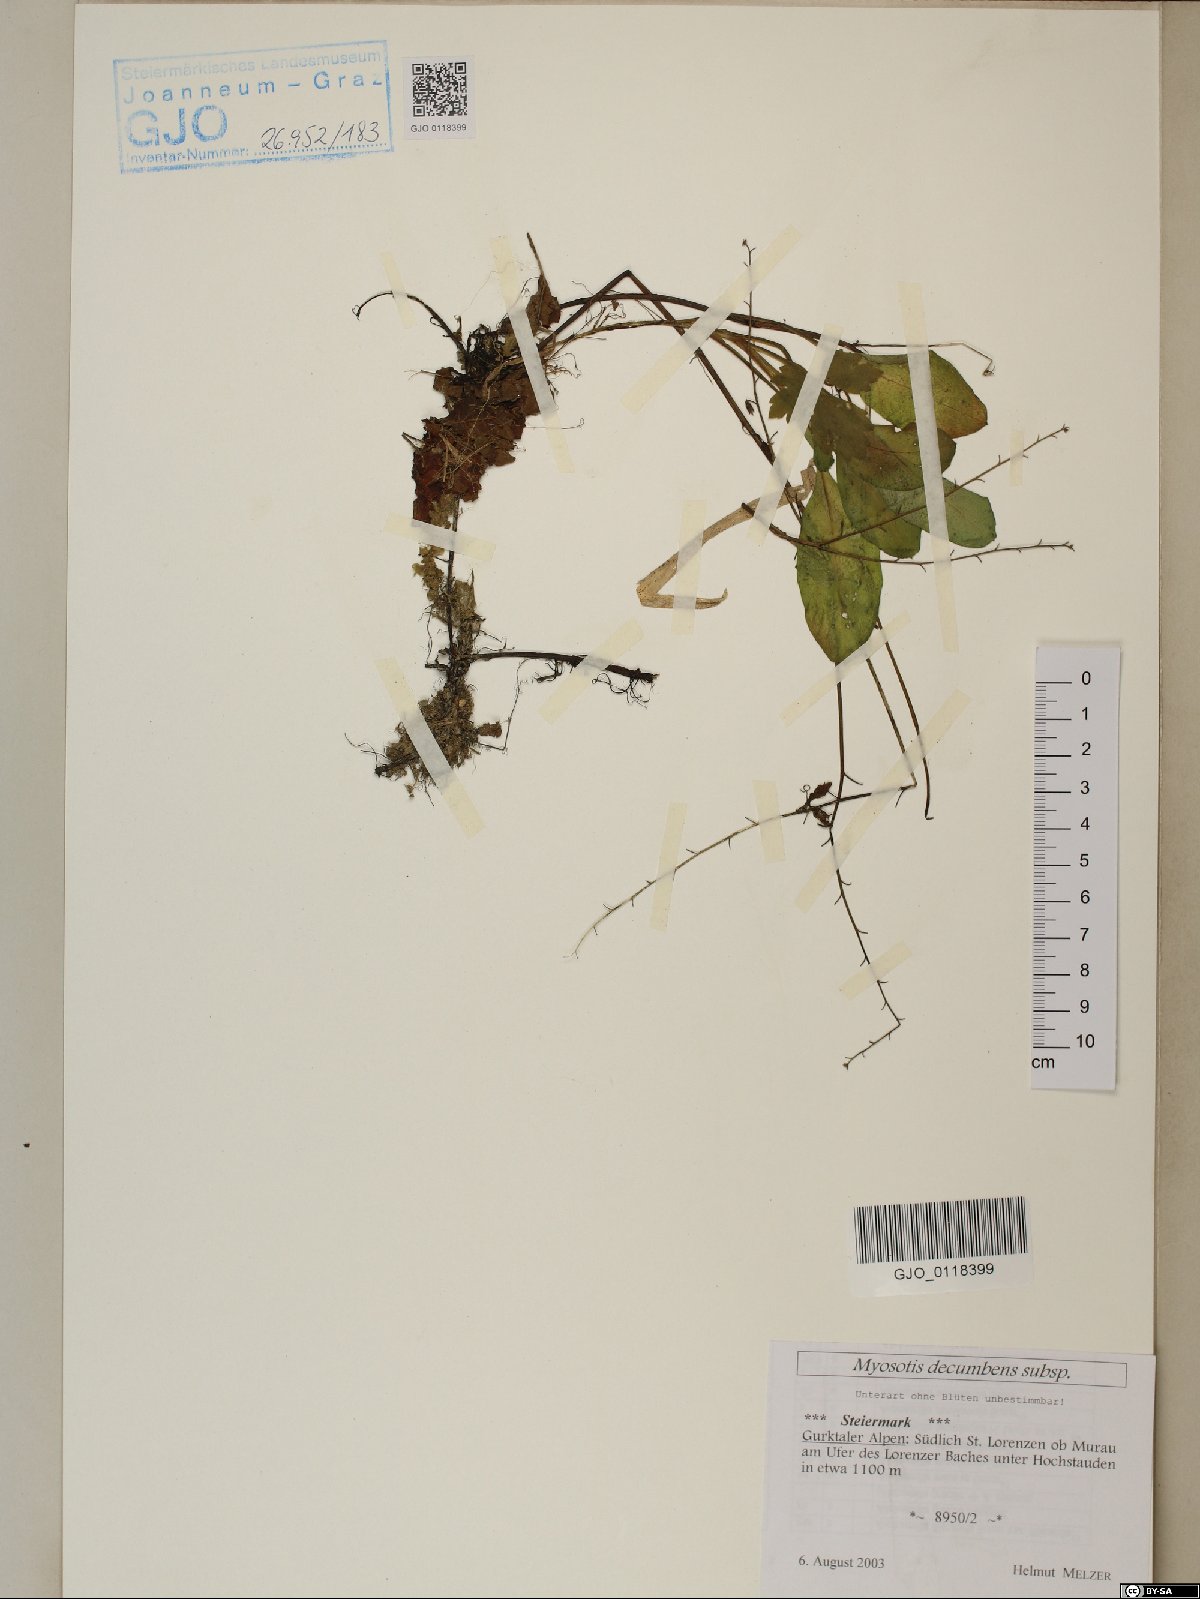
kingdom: Plantae
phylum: Tracheophyta
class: Magnoliopsida
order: Boraginales
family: Boraginaceae
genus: Myosotis
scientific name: Myosotis decumbens
